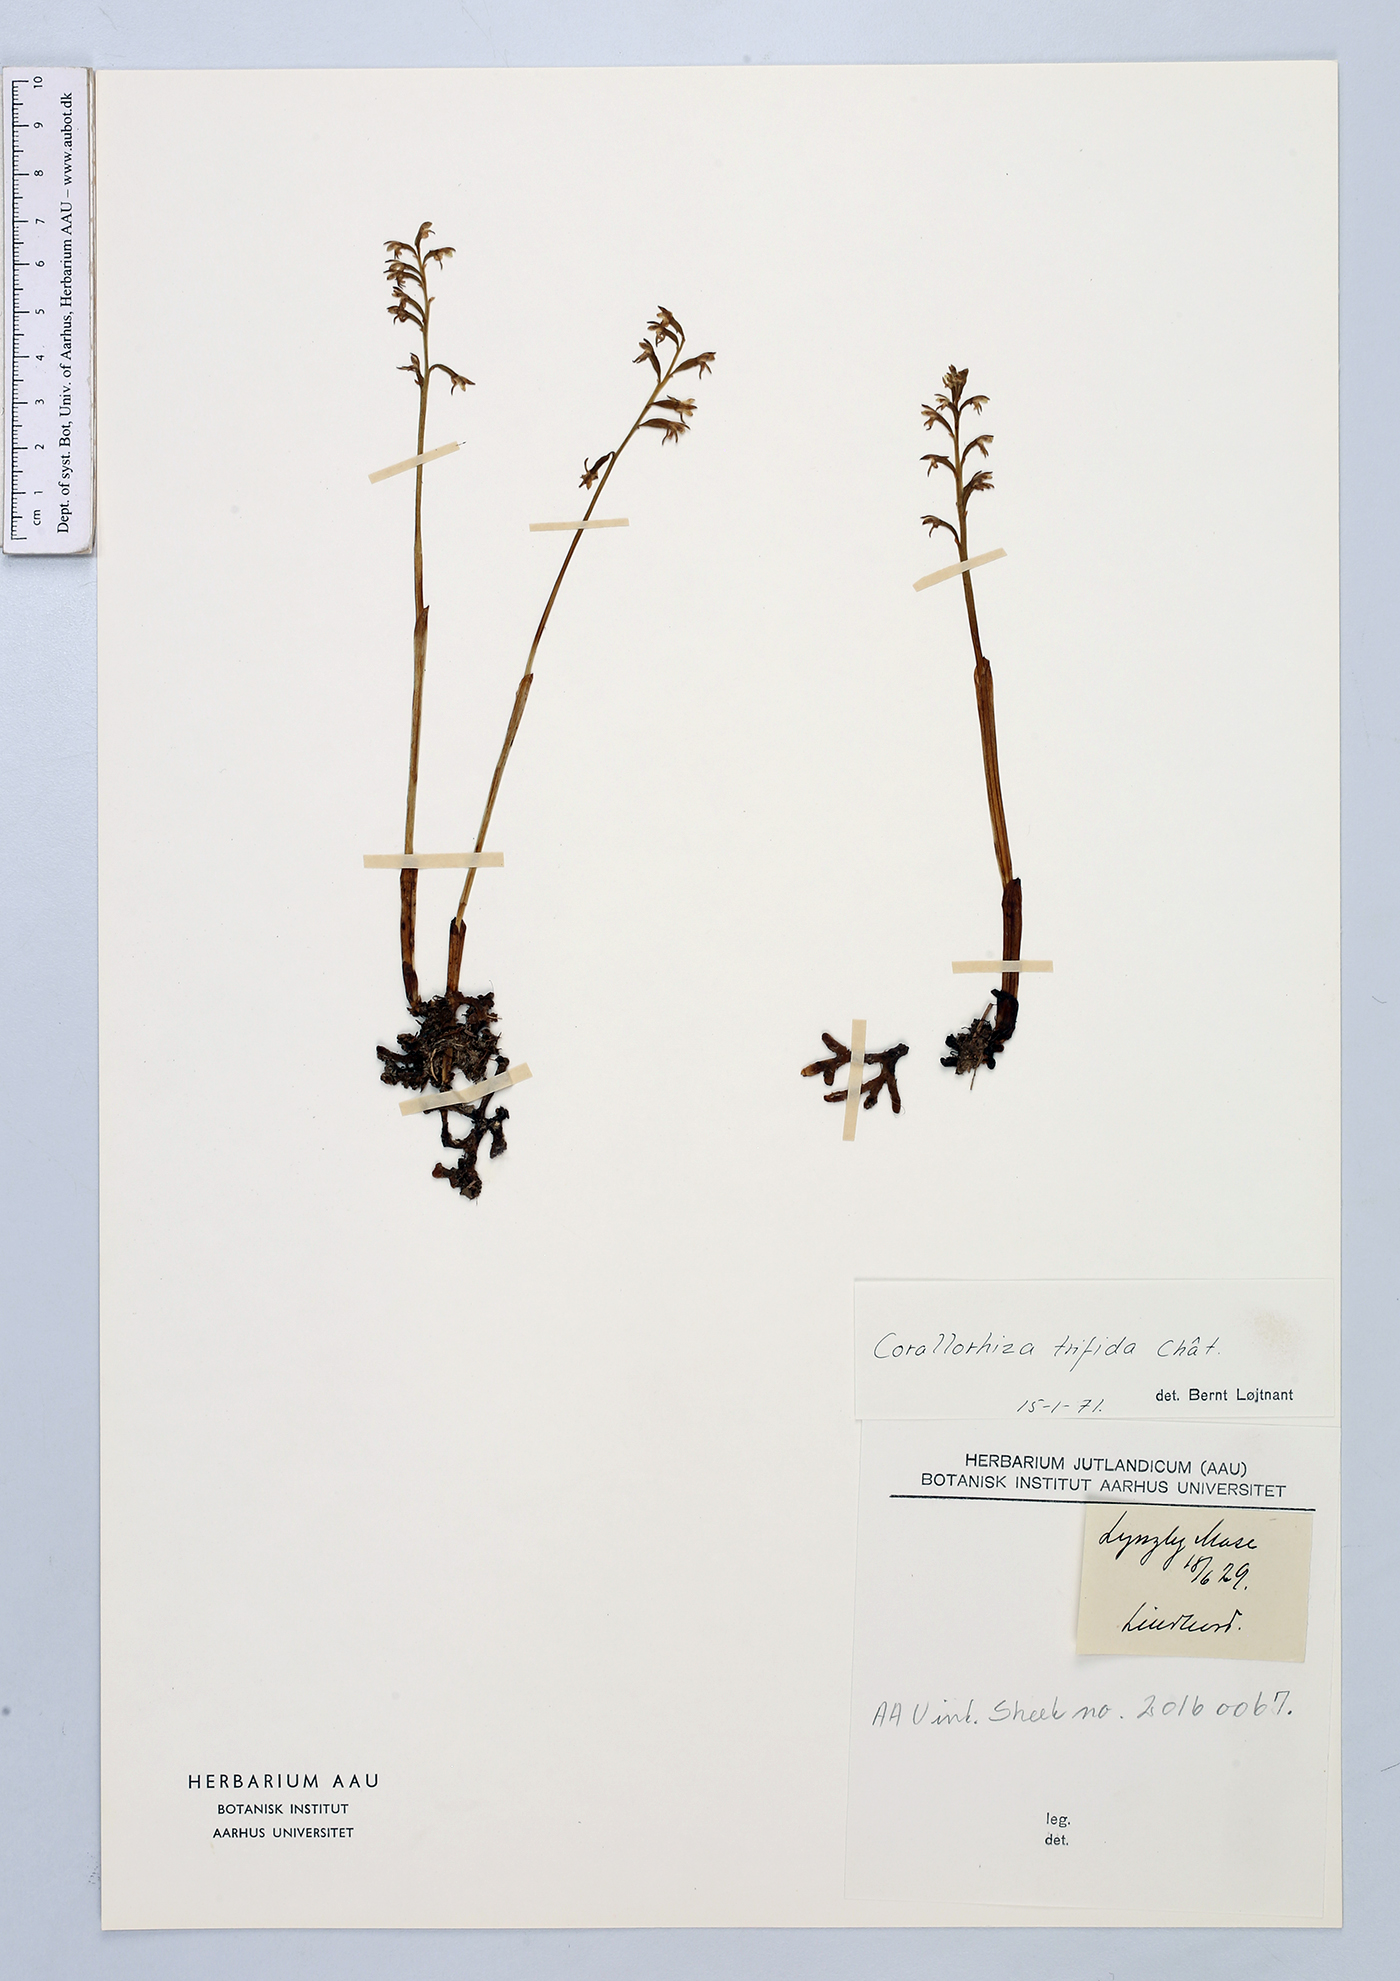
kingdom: Plantae
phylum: Tracheophyta
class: Liliopsida
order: Asparagales
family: Orchidaceae
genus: Corallorhiza
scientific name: Corallorhiza trifida
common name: Yellow coralroot
